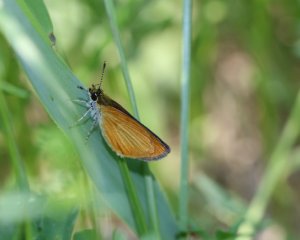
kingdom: Animalia
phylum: Arthropoda
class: Insecta
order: Lepidoptera
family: Hesperiidae
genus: Ancyloxypha
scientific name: Ancyloxypha numitor
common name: Least Skipper
